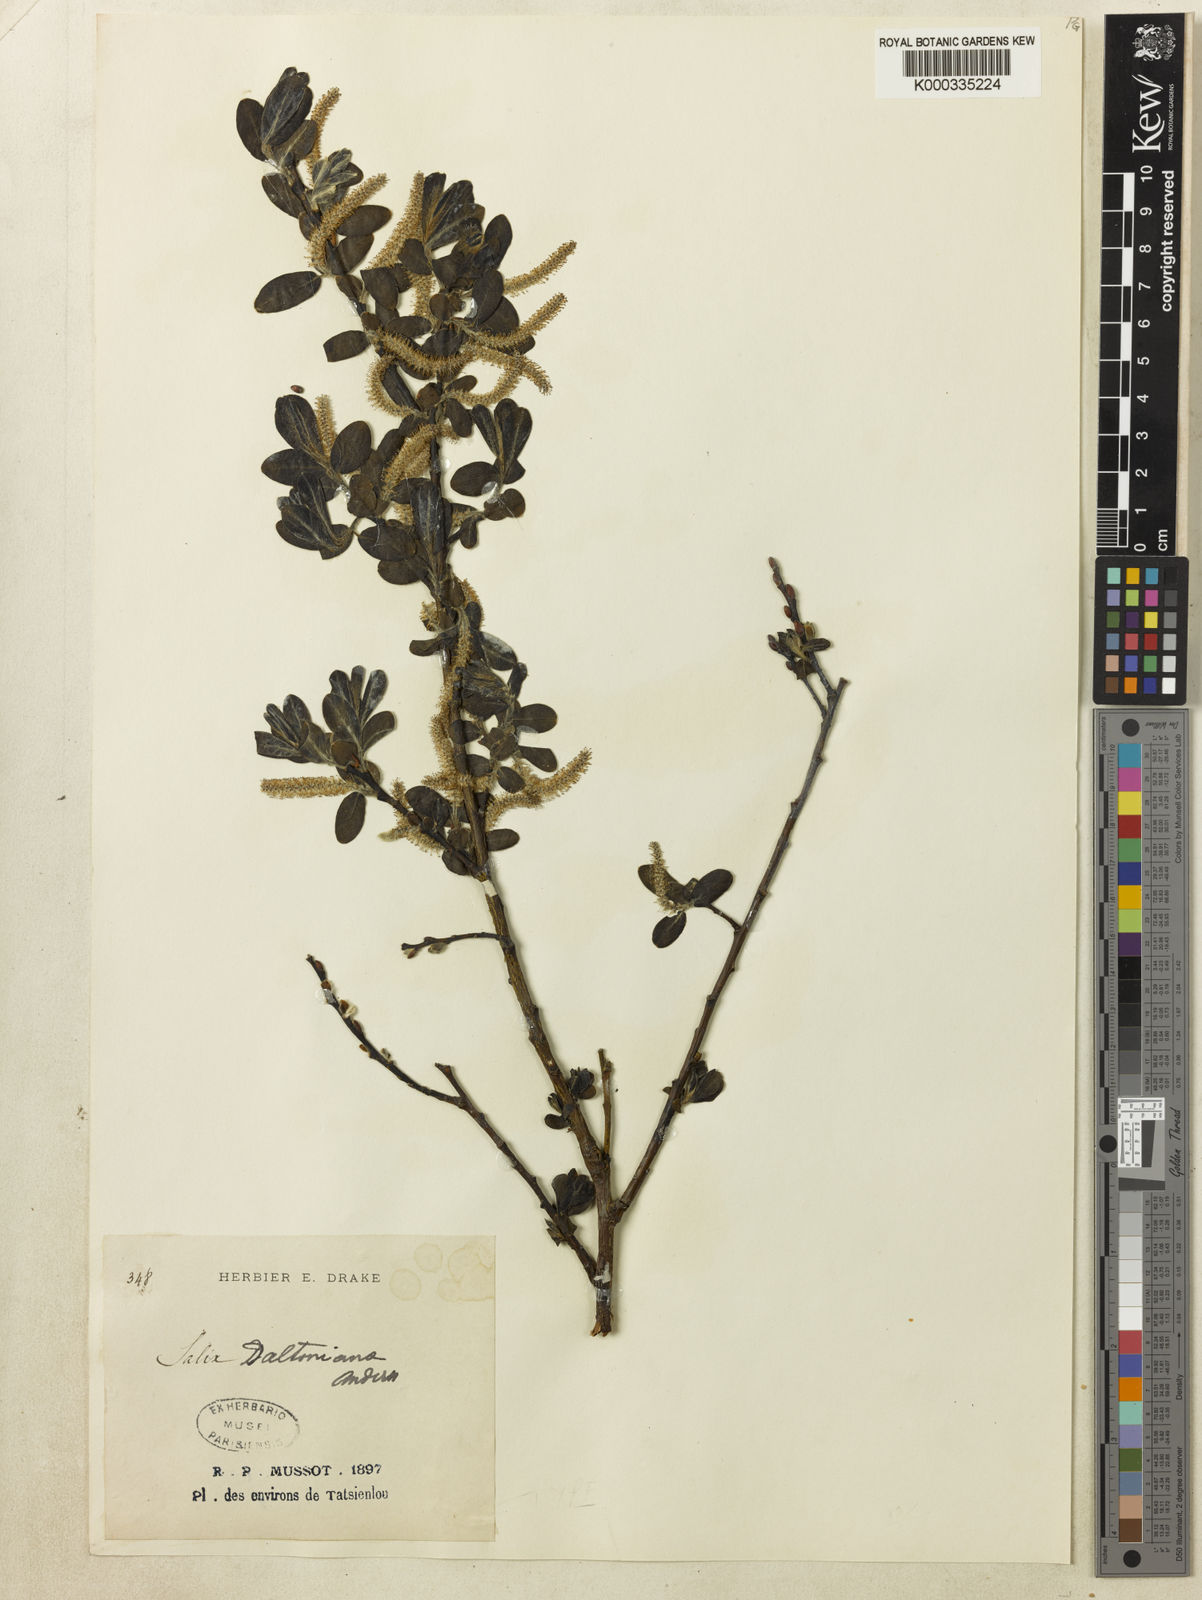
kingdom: Plantae
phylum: Tracheophyta
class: Magnoliopsida
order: Malpighiales
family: Salicaceae
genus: Salix
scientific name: Salix daltoniana
